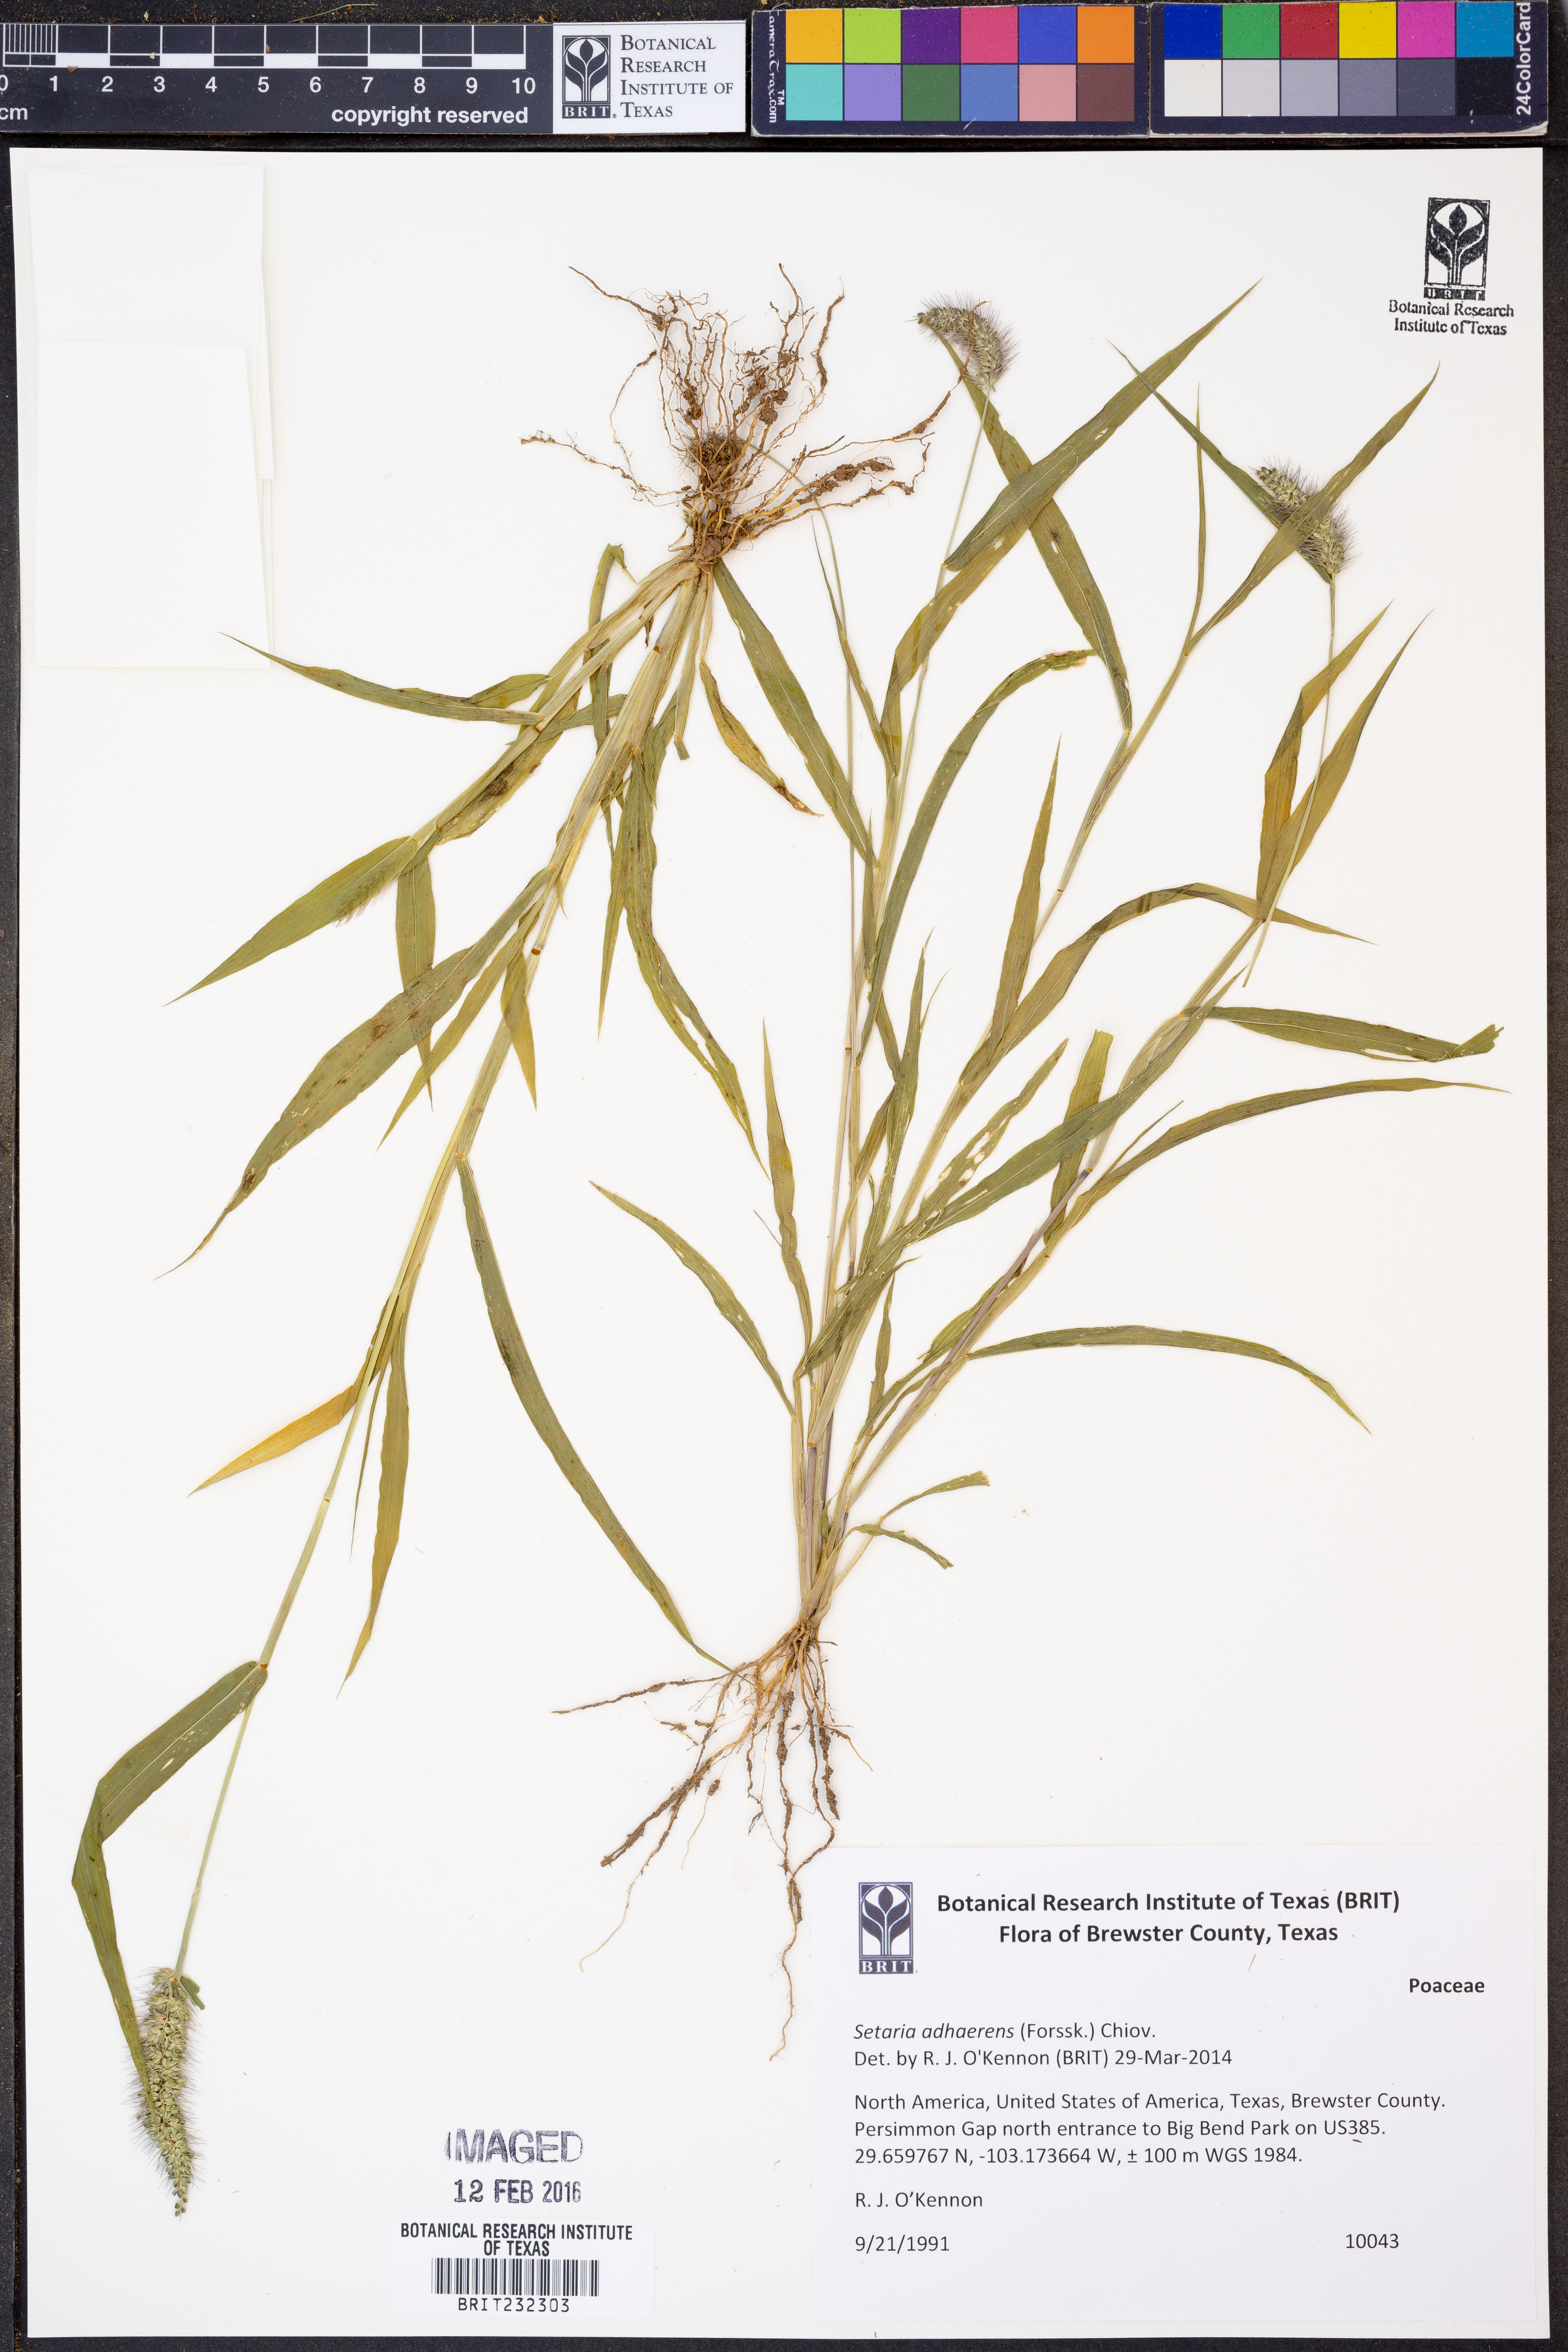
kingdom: Plantae
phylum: Tracheophyta
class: Liliopsida
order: Poales
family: Poaceae
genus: Setaria
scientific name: Setaria adhaerens
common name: Adherent bristle-grass
